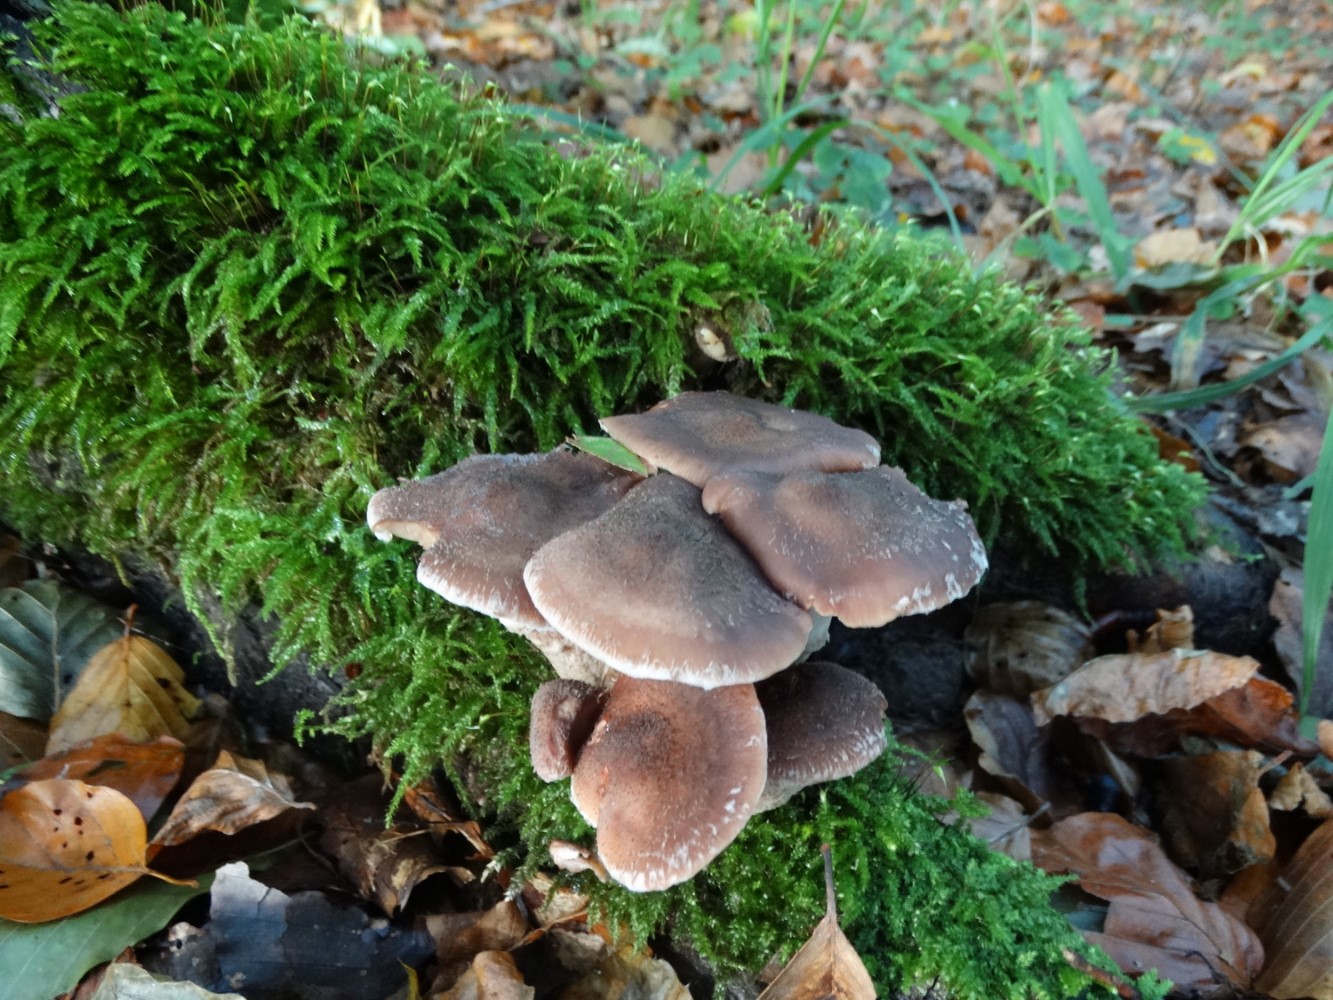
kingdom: Fungi
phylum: Basidiomycota
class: Agaricomycetes
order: Agaricales
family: Physalacriaceae
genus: Armillaria
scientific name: Armillaria lutea
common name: køllestokket honningsvamp
